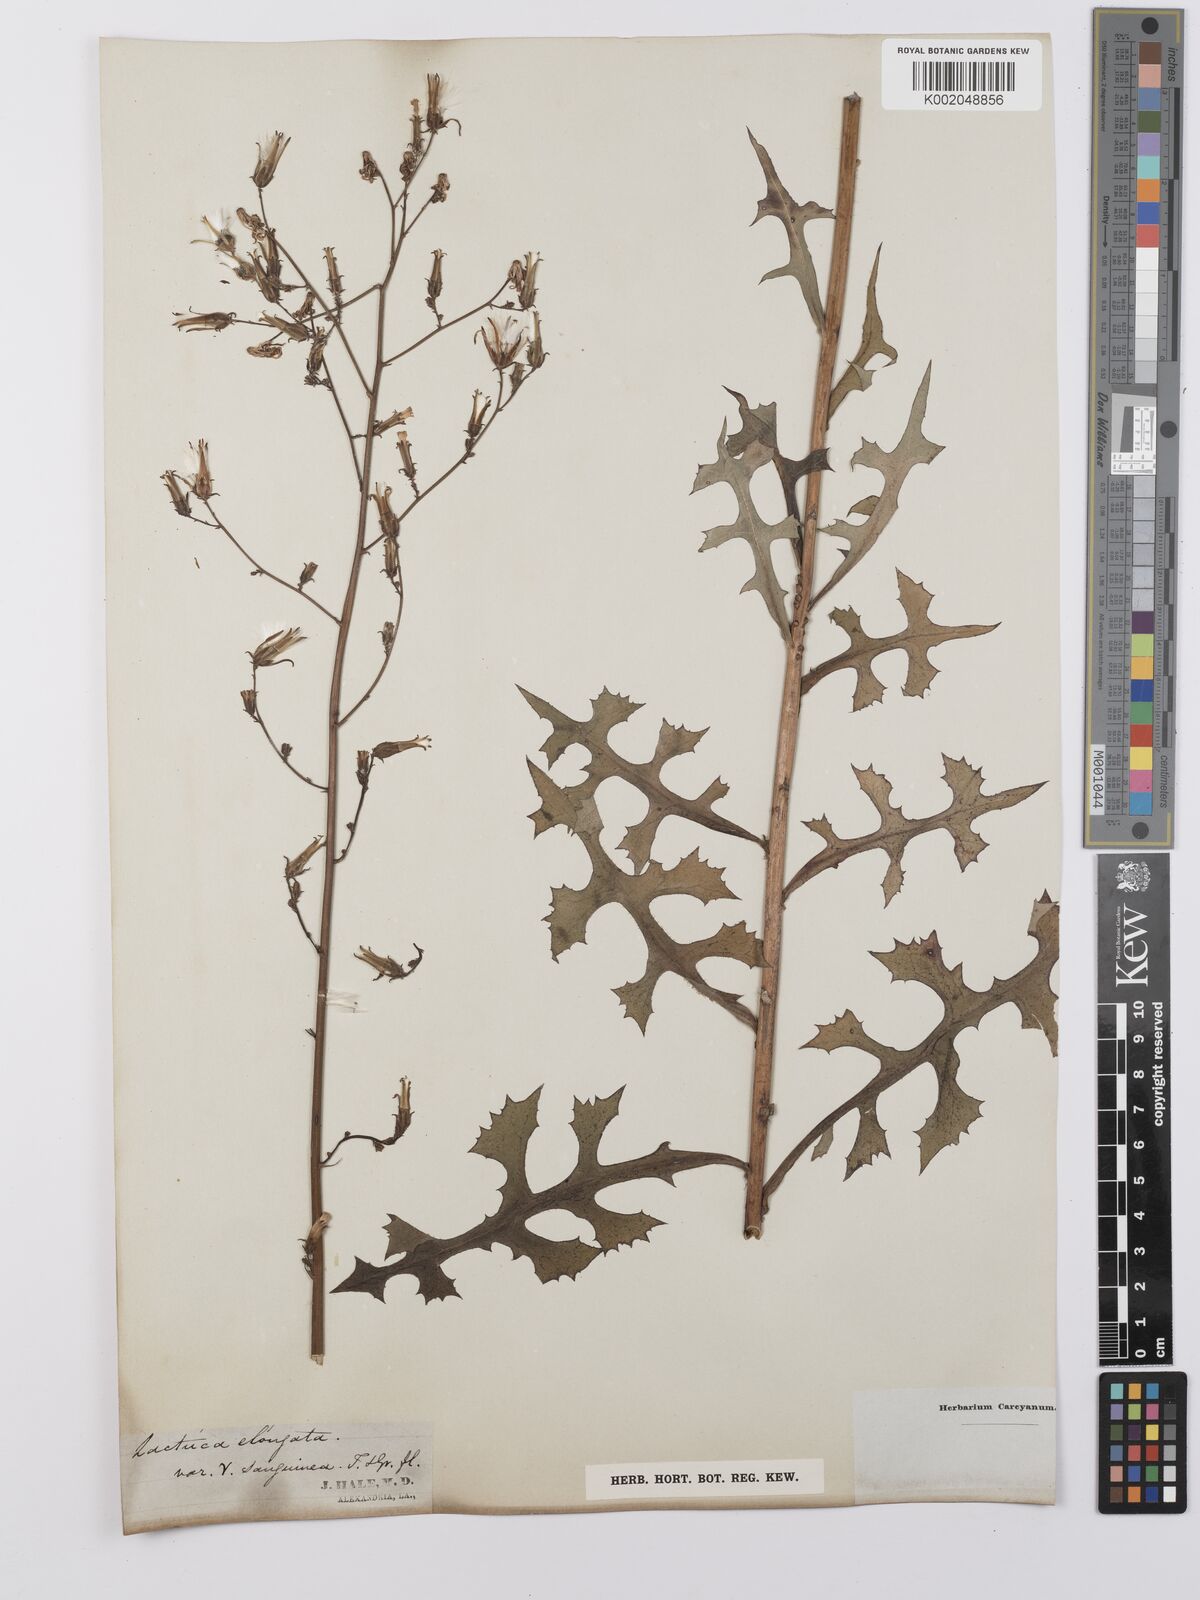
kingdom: Plantae
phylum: Tracheophyta
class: Magnoliopsida
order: Asterales
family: Asteraceae
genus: Lactuca
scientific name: Lactuca canadensis
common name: Canada lettuce
